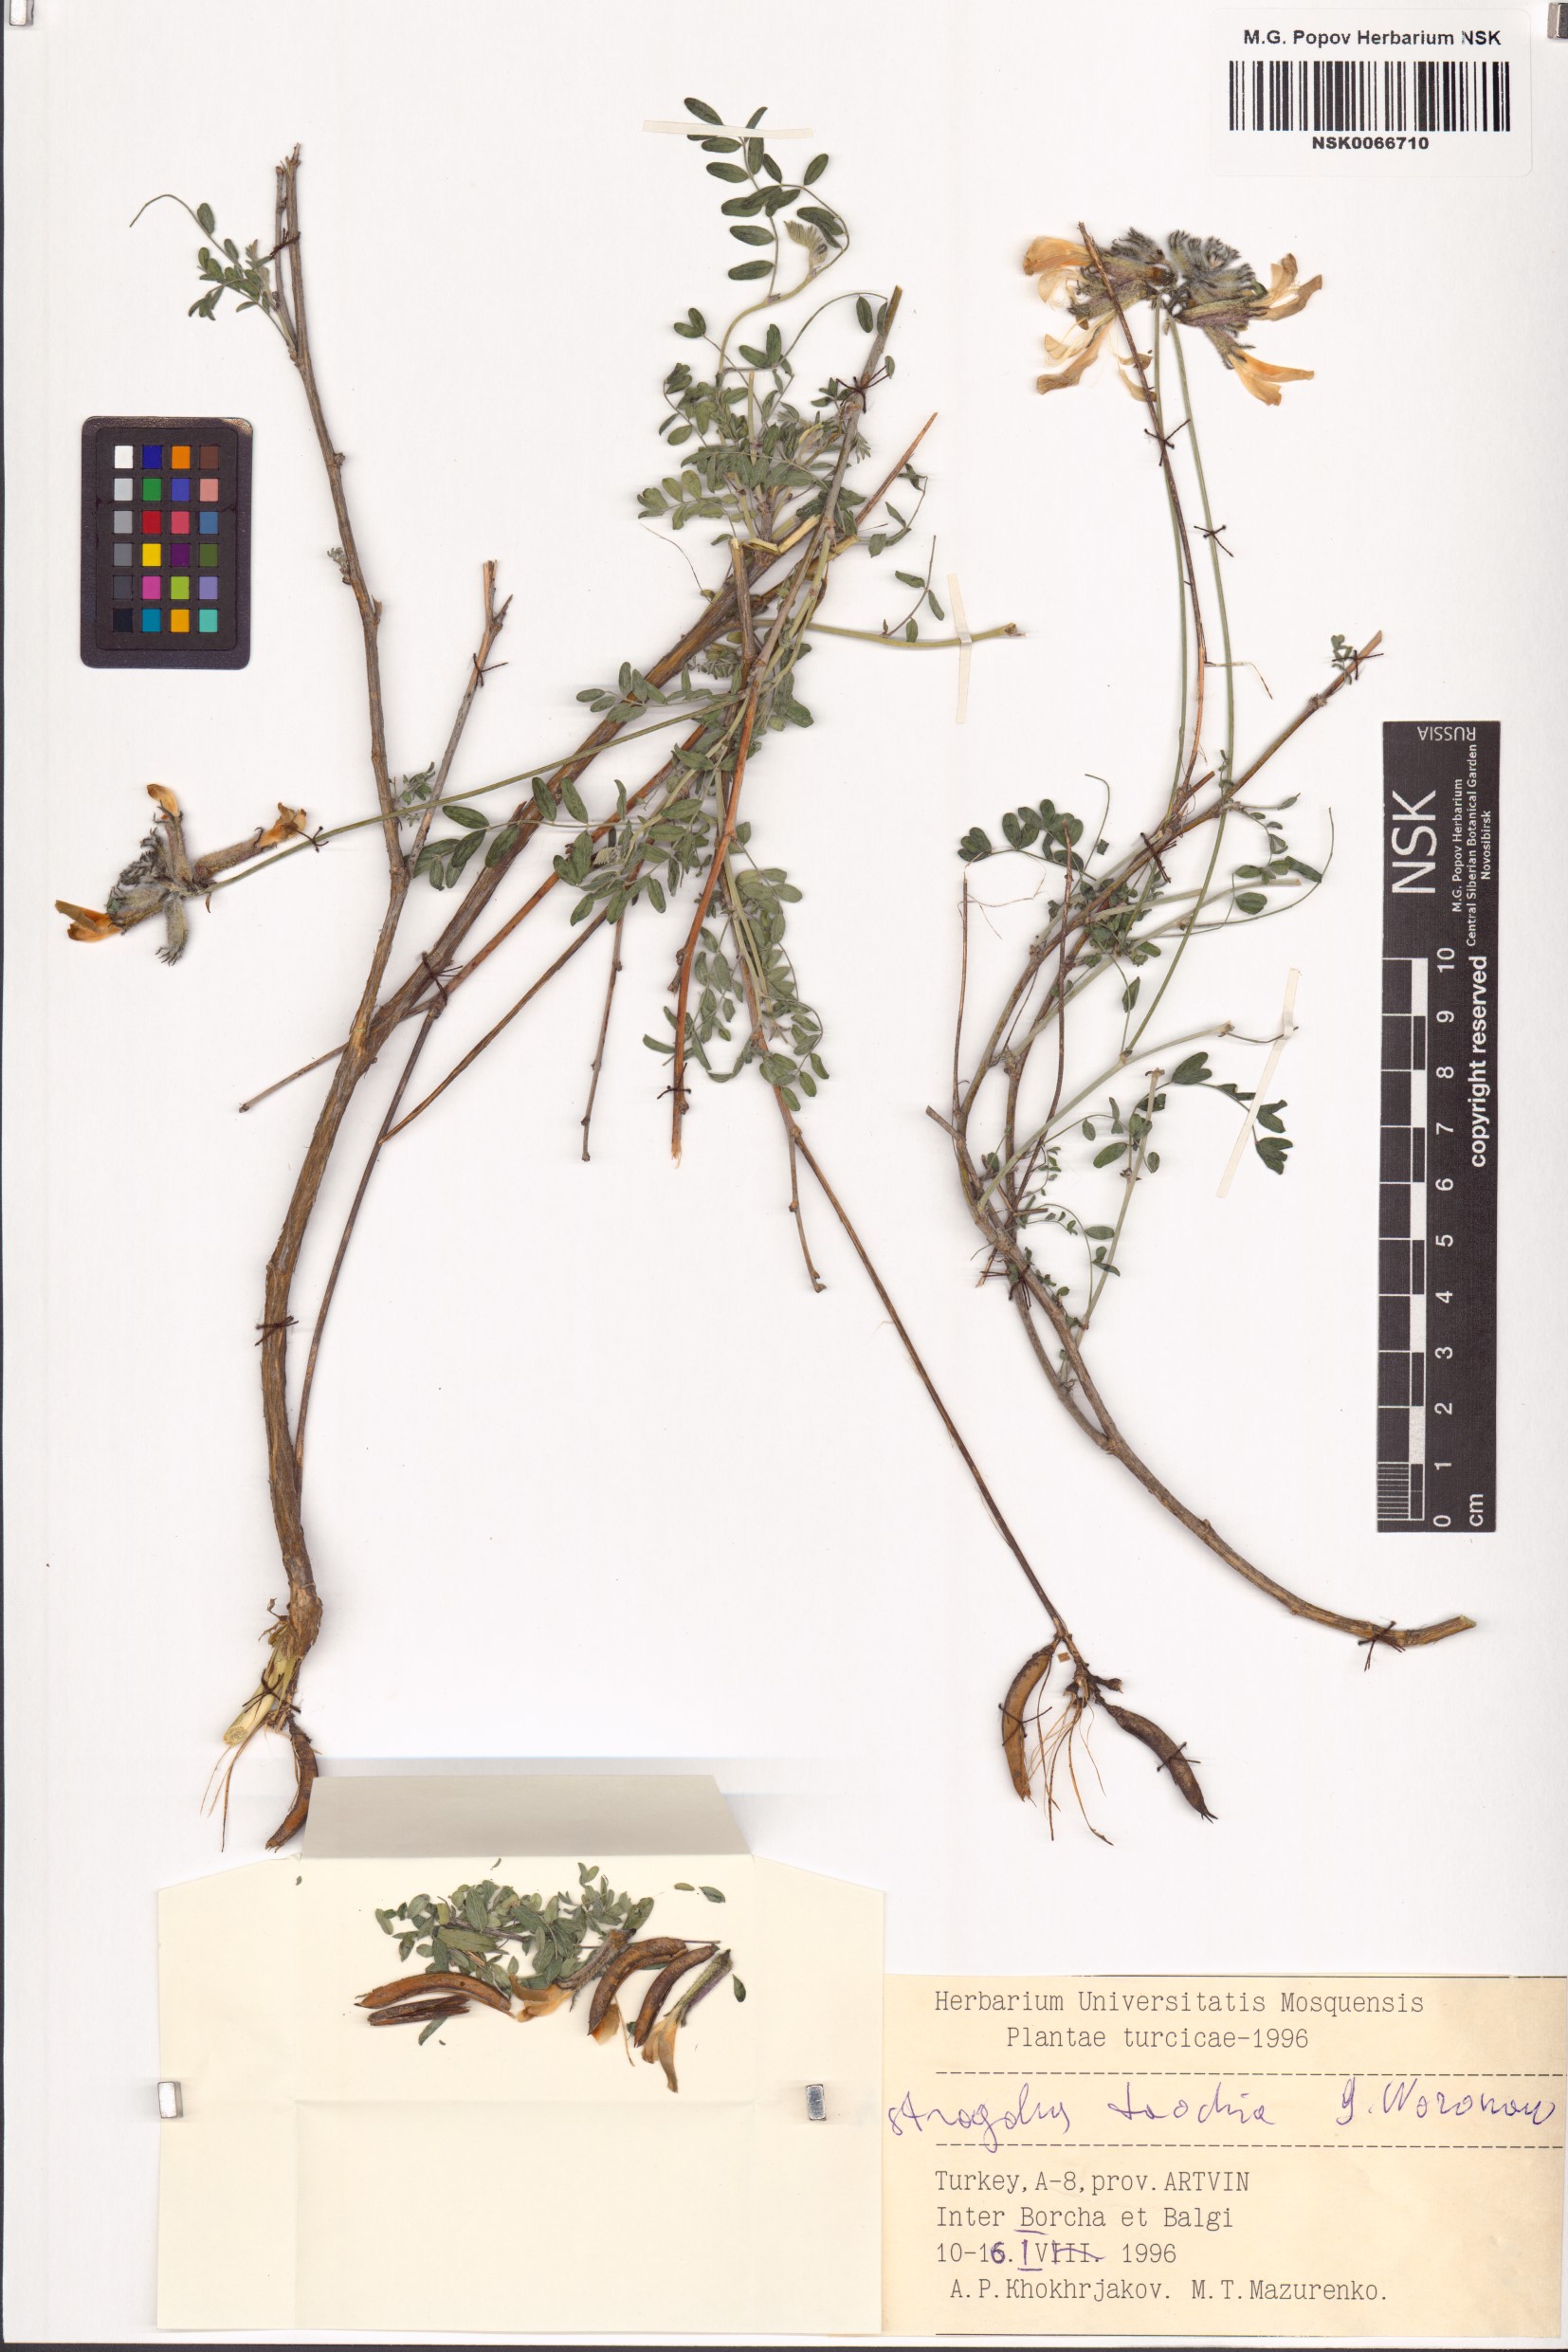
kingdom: Plantae
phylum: Tracheophyta
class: Magnoliopsida
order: Fabales
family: Fabaceae
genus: Astragalus
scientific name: Astragalus taochius
